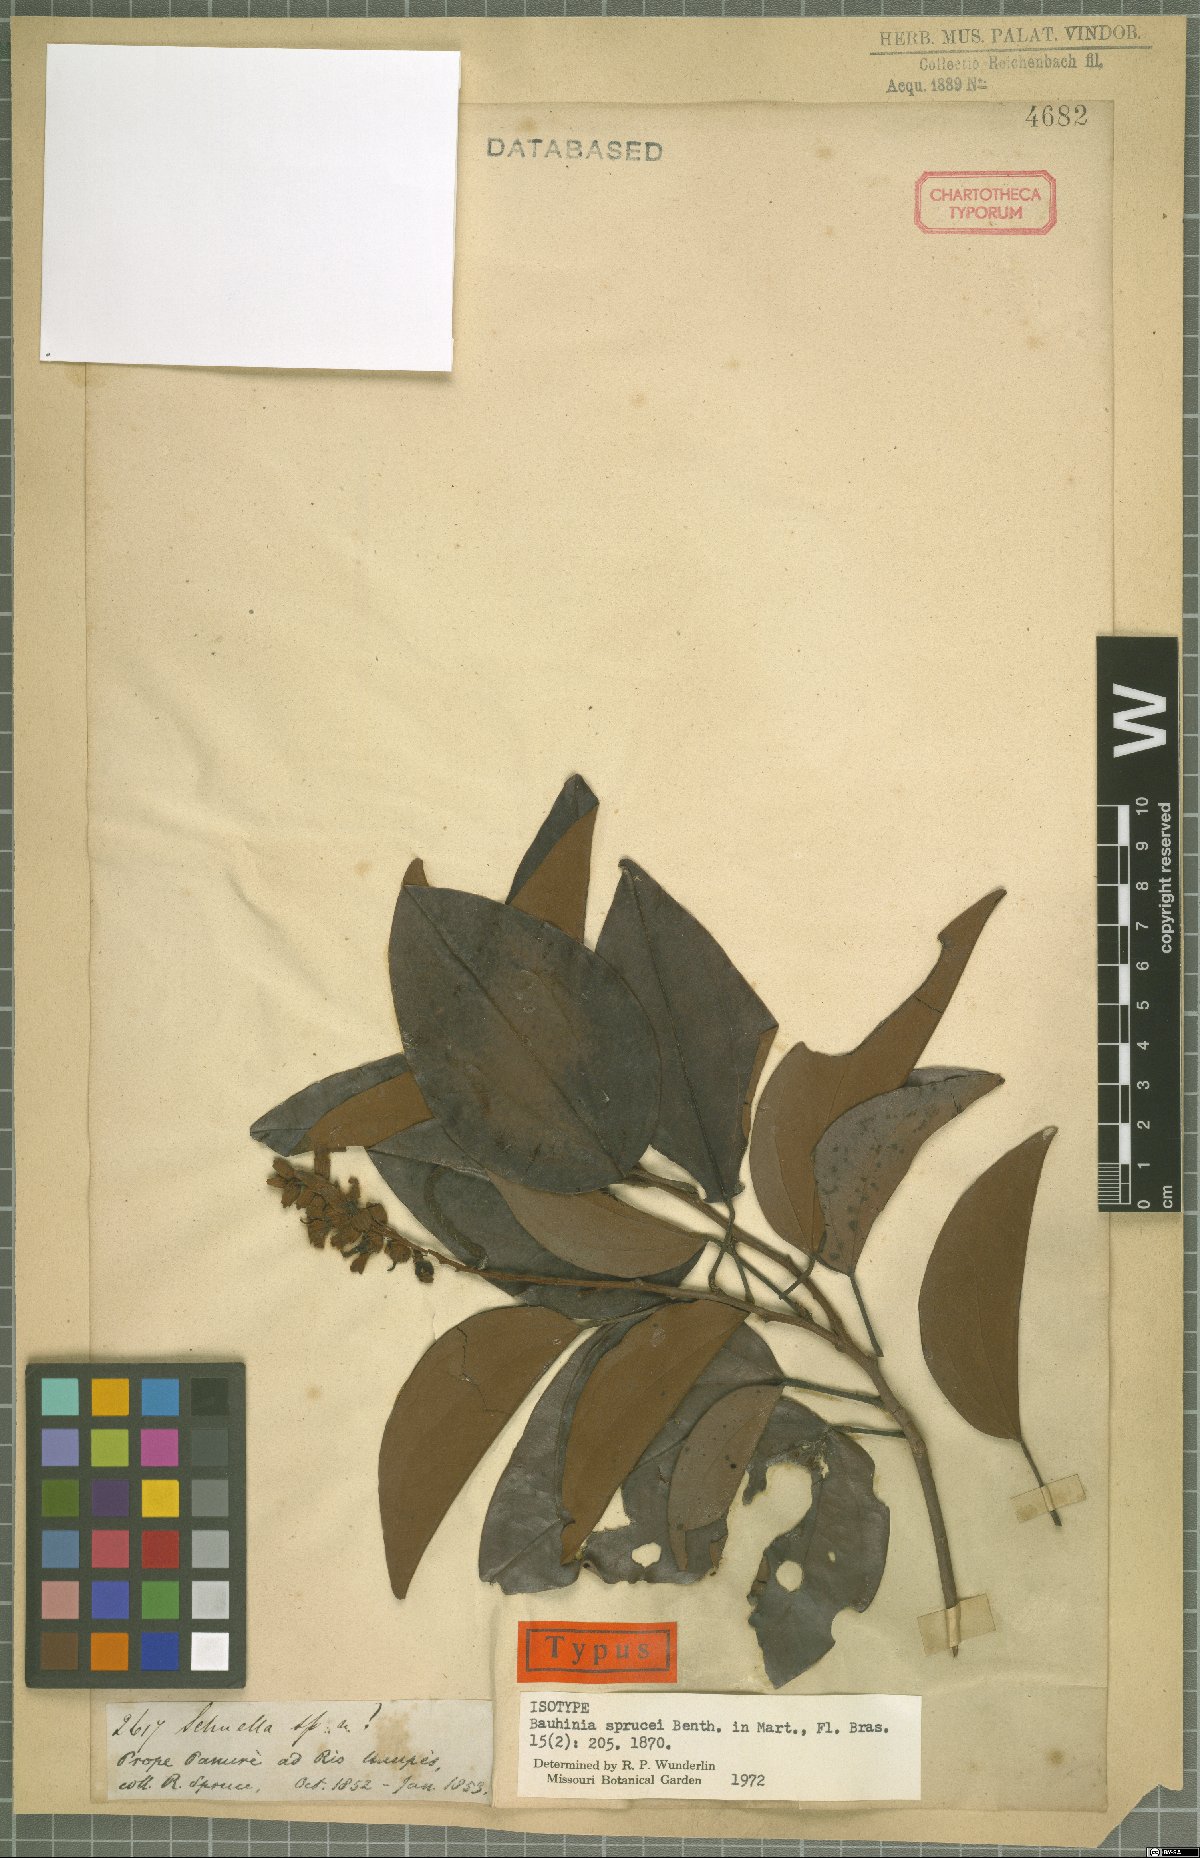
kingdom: Plantae
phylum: Tracheophyta
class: Magnoliopsida
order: Fabales
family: Fabaceae
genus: Schnella
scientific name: Schnella sprucei
